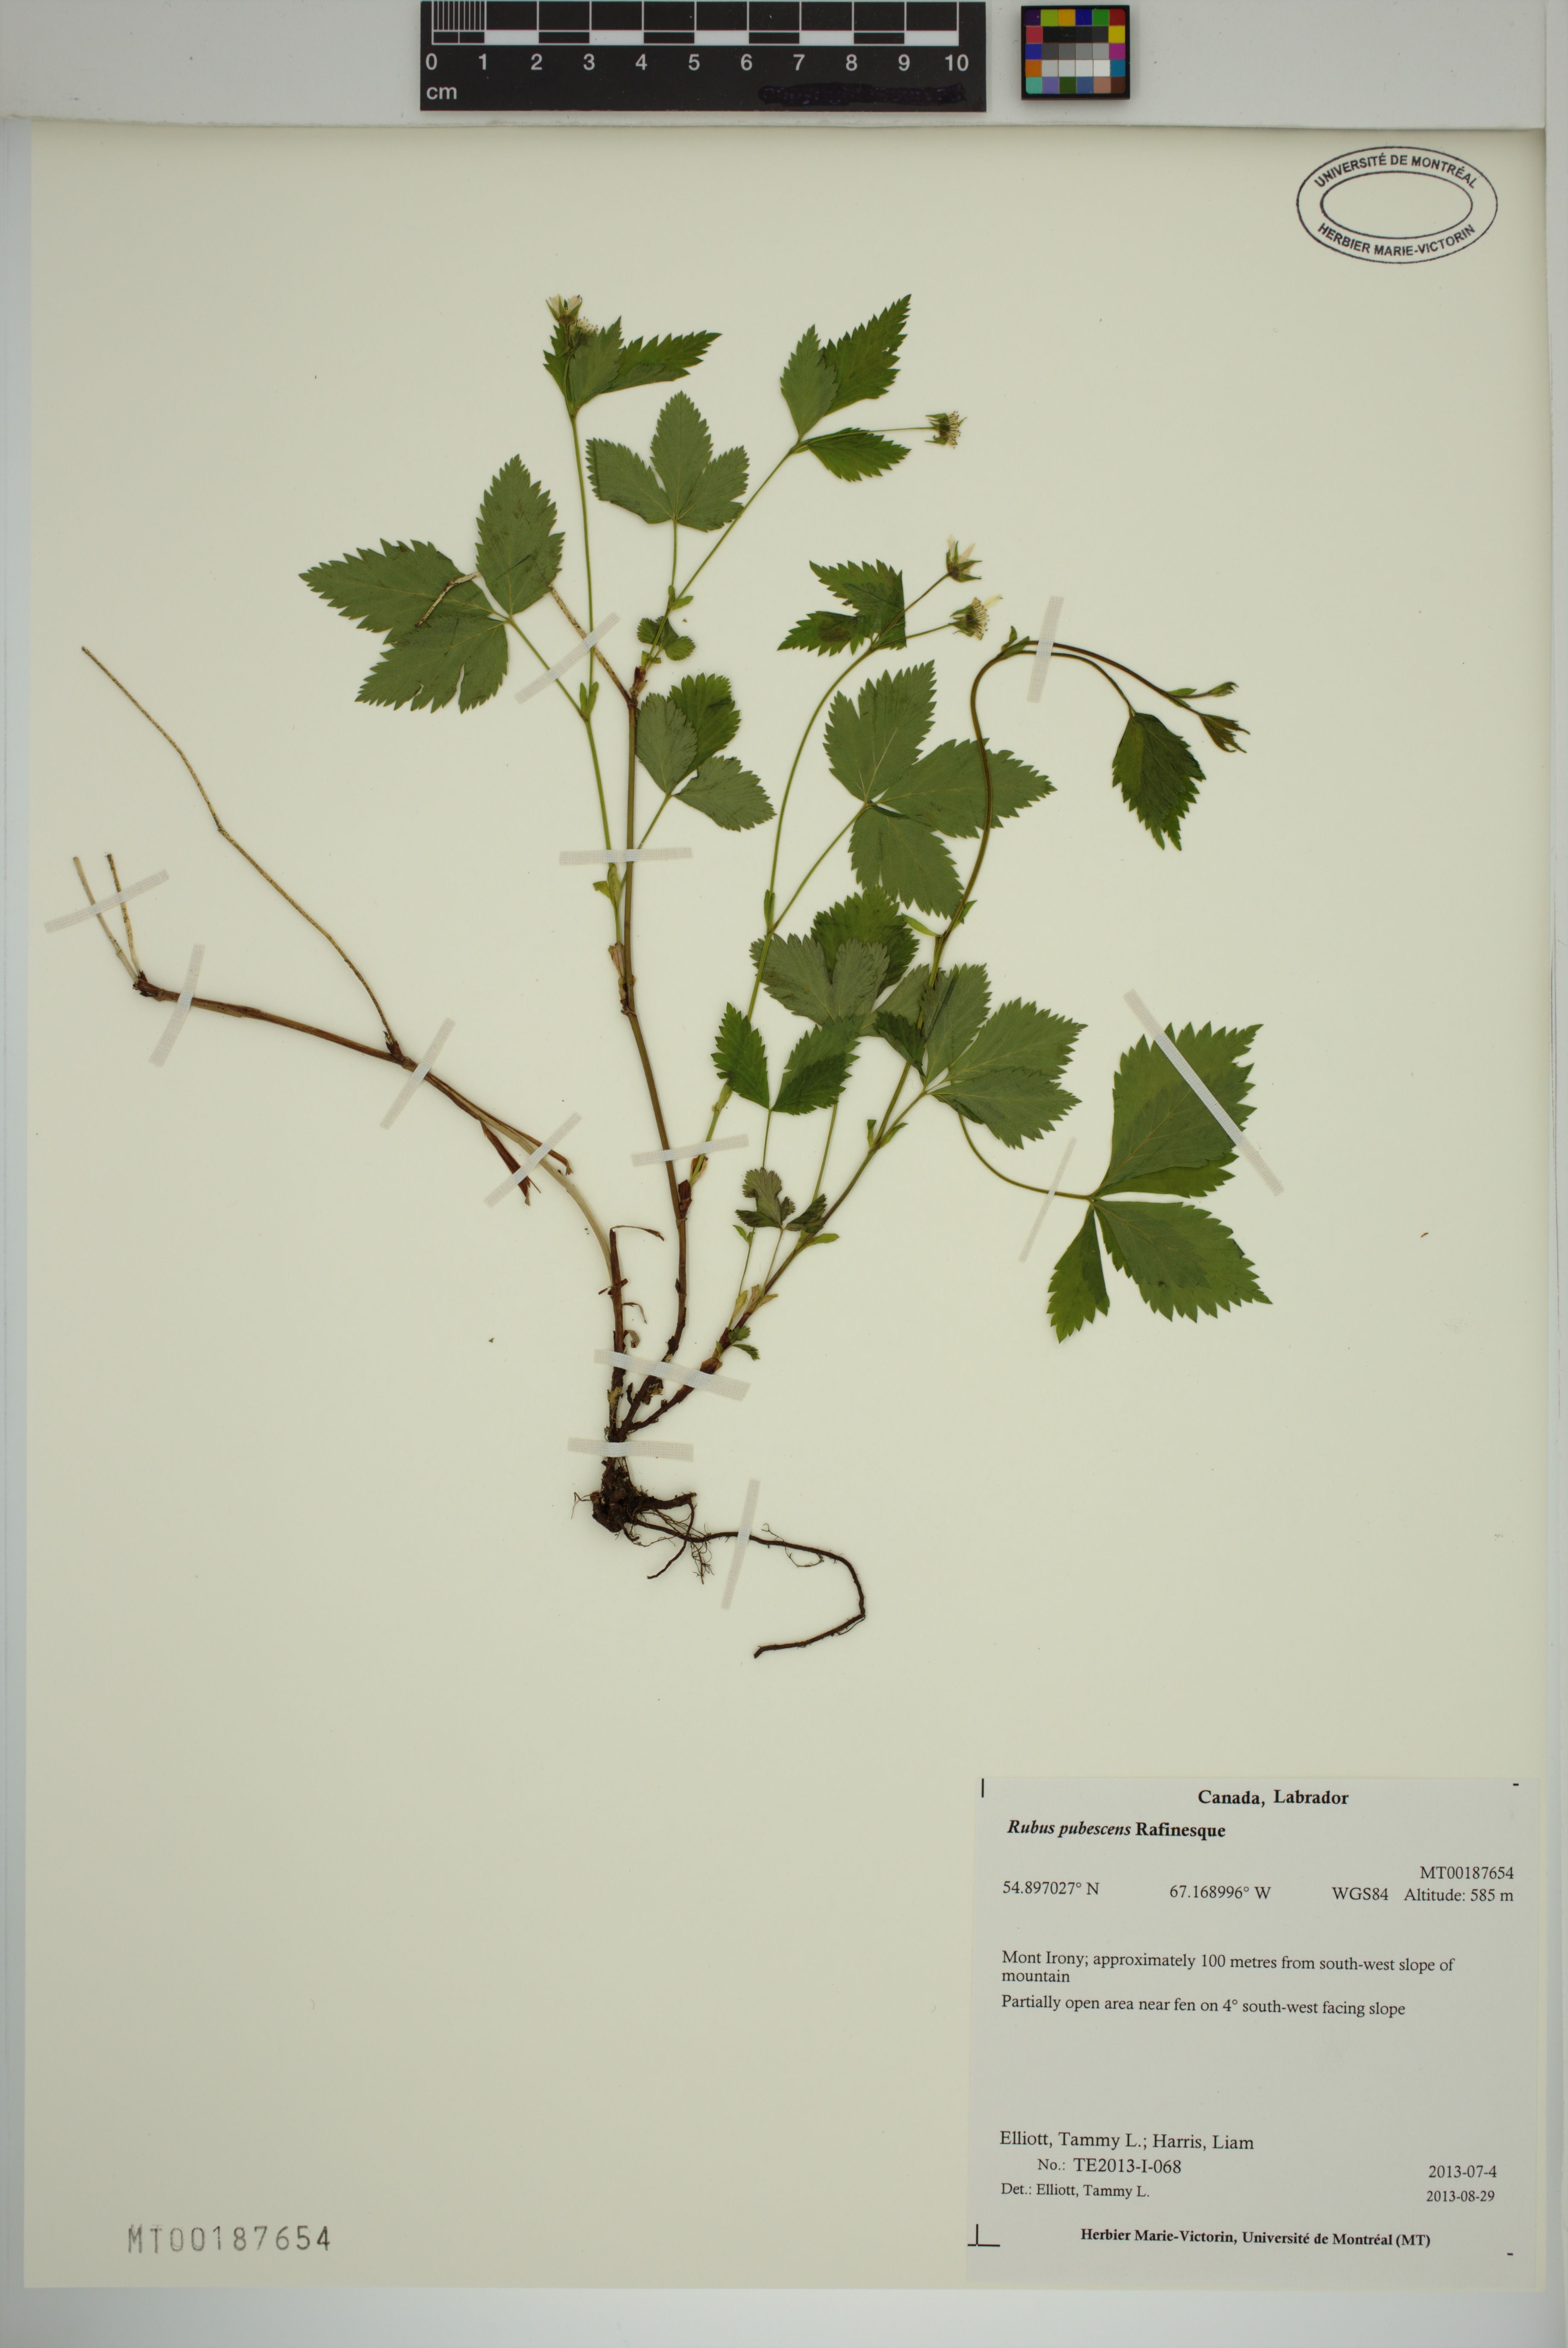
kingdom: Plantae
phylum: Tracheophyta
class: Magnoliopsida
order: Rosales
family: Rosaceae
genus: Rubus
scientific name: Rubus pubescens
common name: Dwarf raspberry
